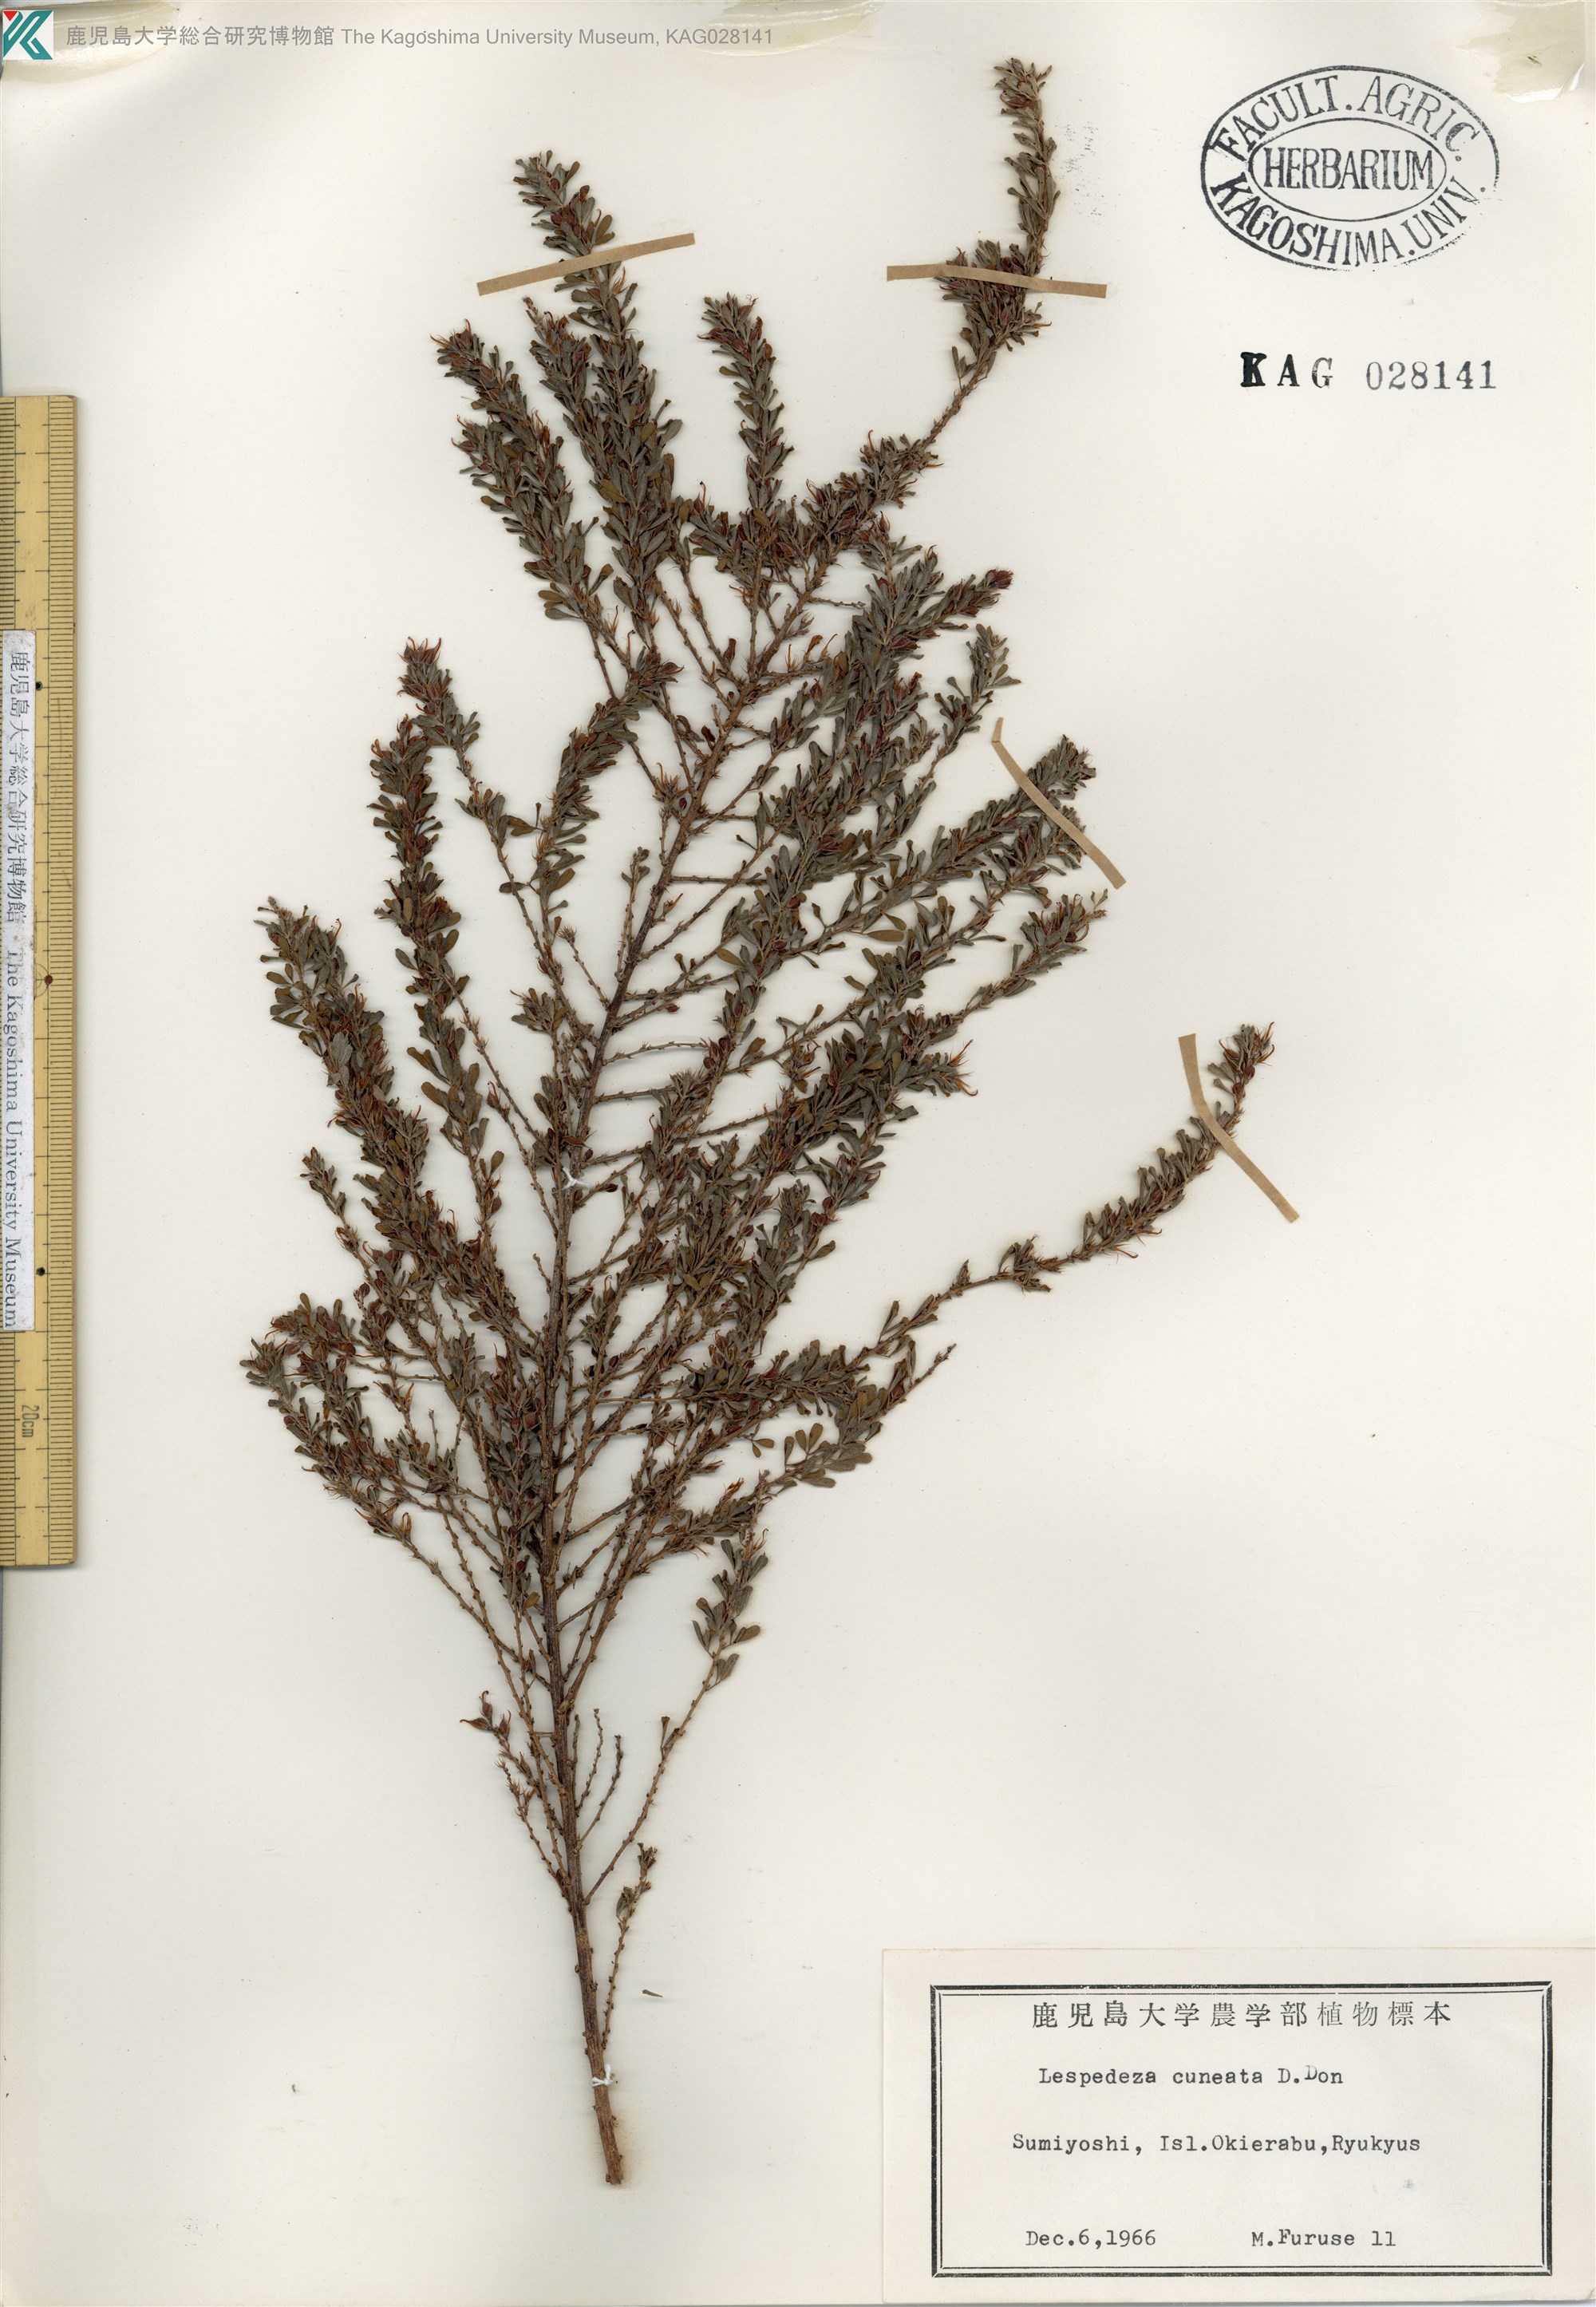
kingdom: Plantae
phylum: Tracheophyta
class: Magnoliopsida
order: Fabales
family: Fabaceae
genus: Lespedeza
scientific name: Lespedeza cuneata
